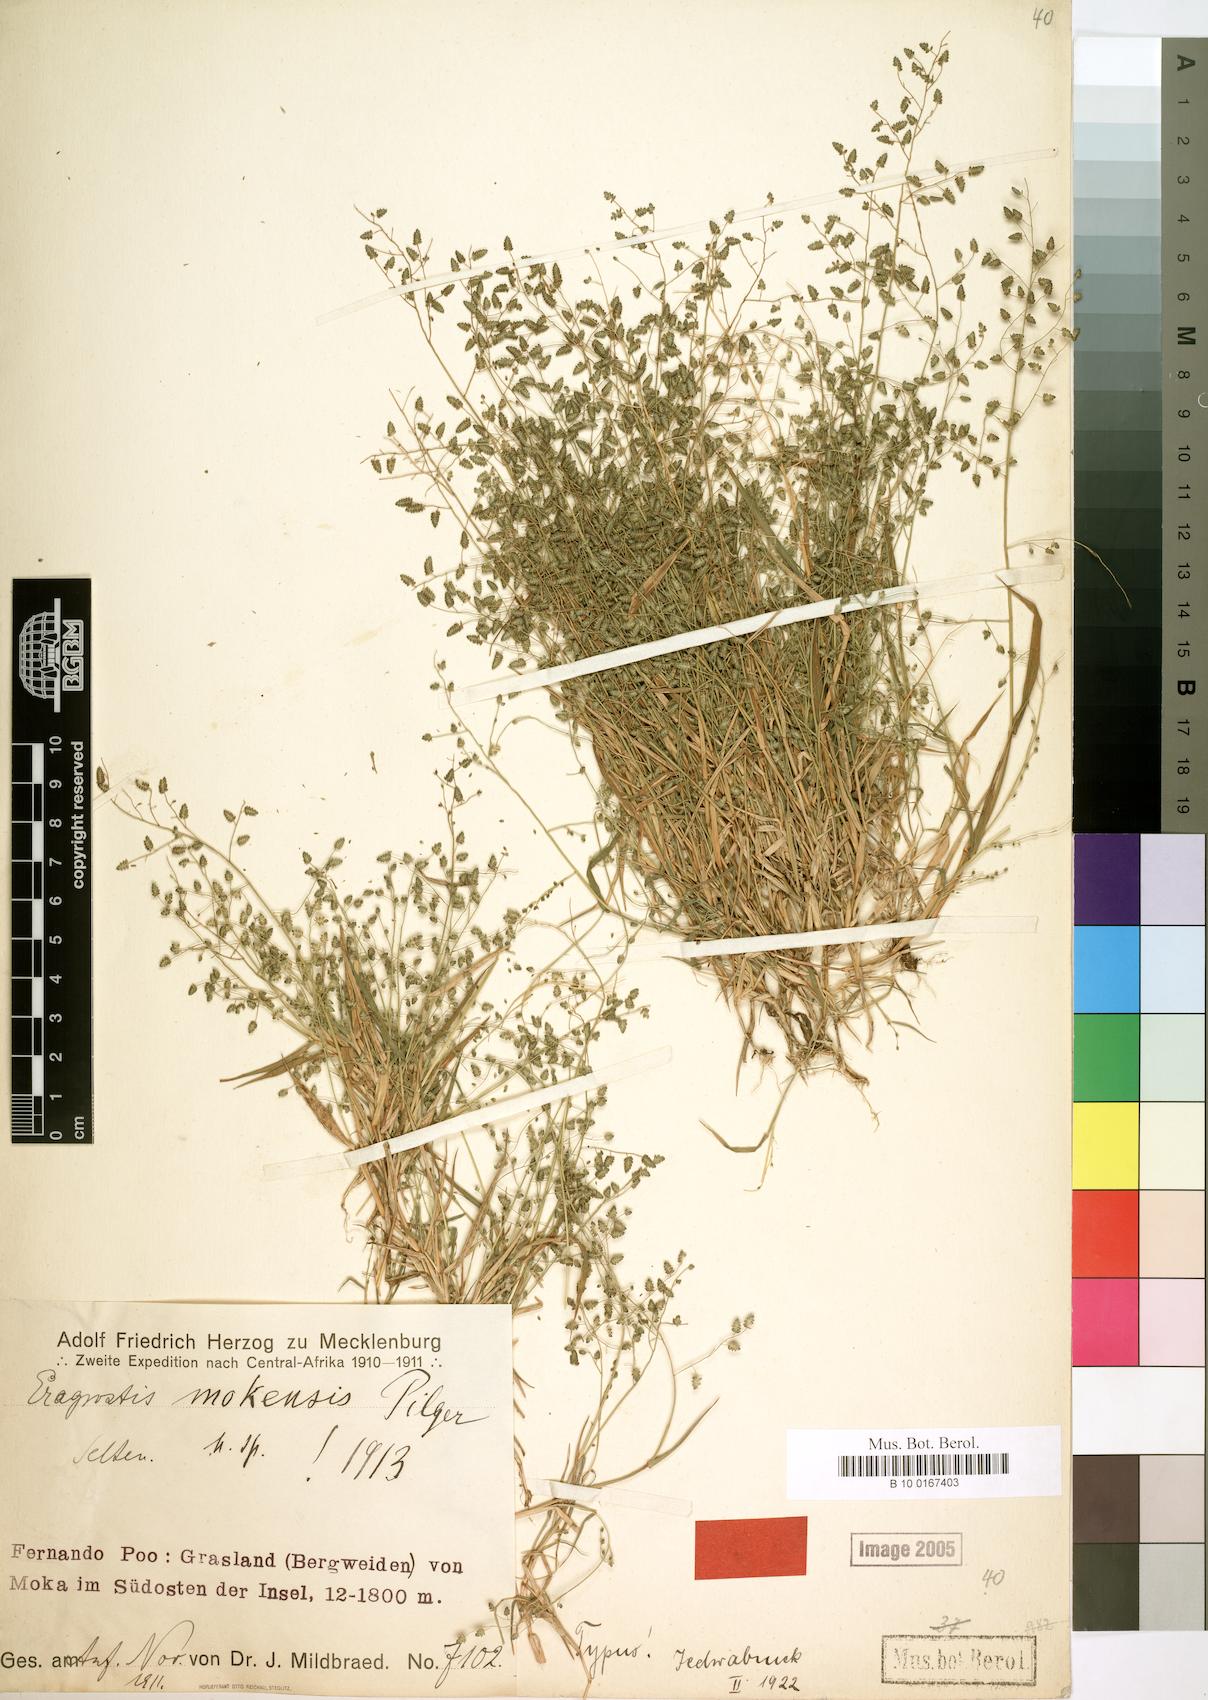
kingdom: Plantae
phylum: Tracheophyta
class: Liliopsida
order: Poales
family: Poaceae
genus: Eragrostis
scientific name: Eragrostis mokensis
